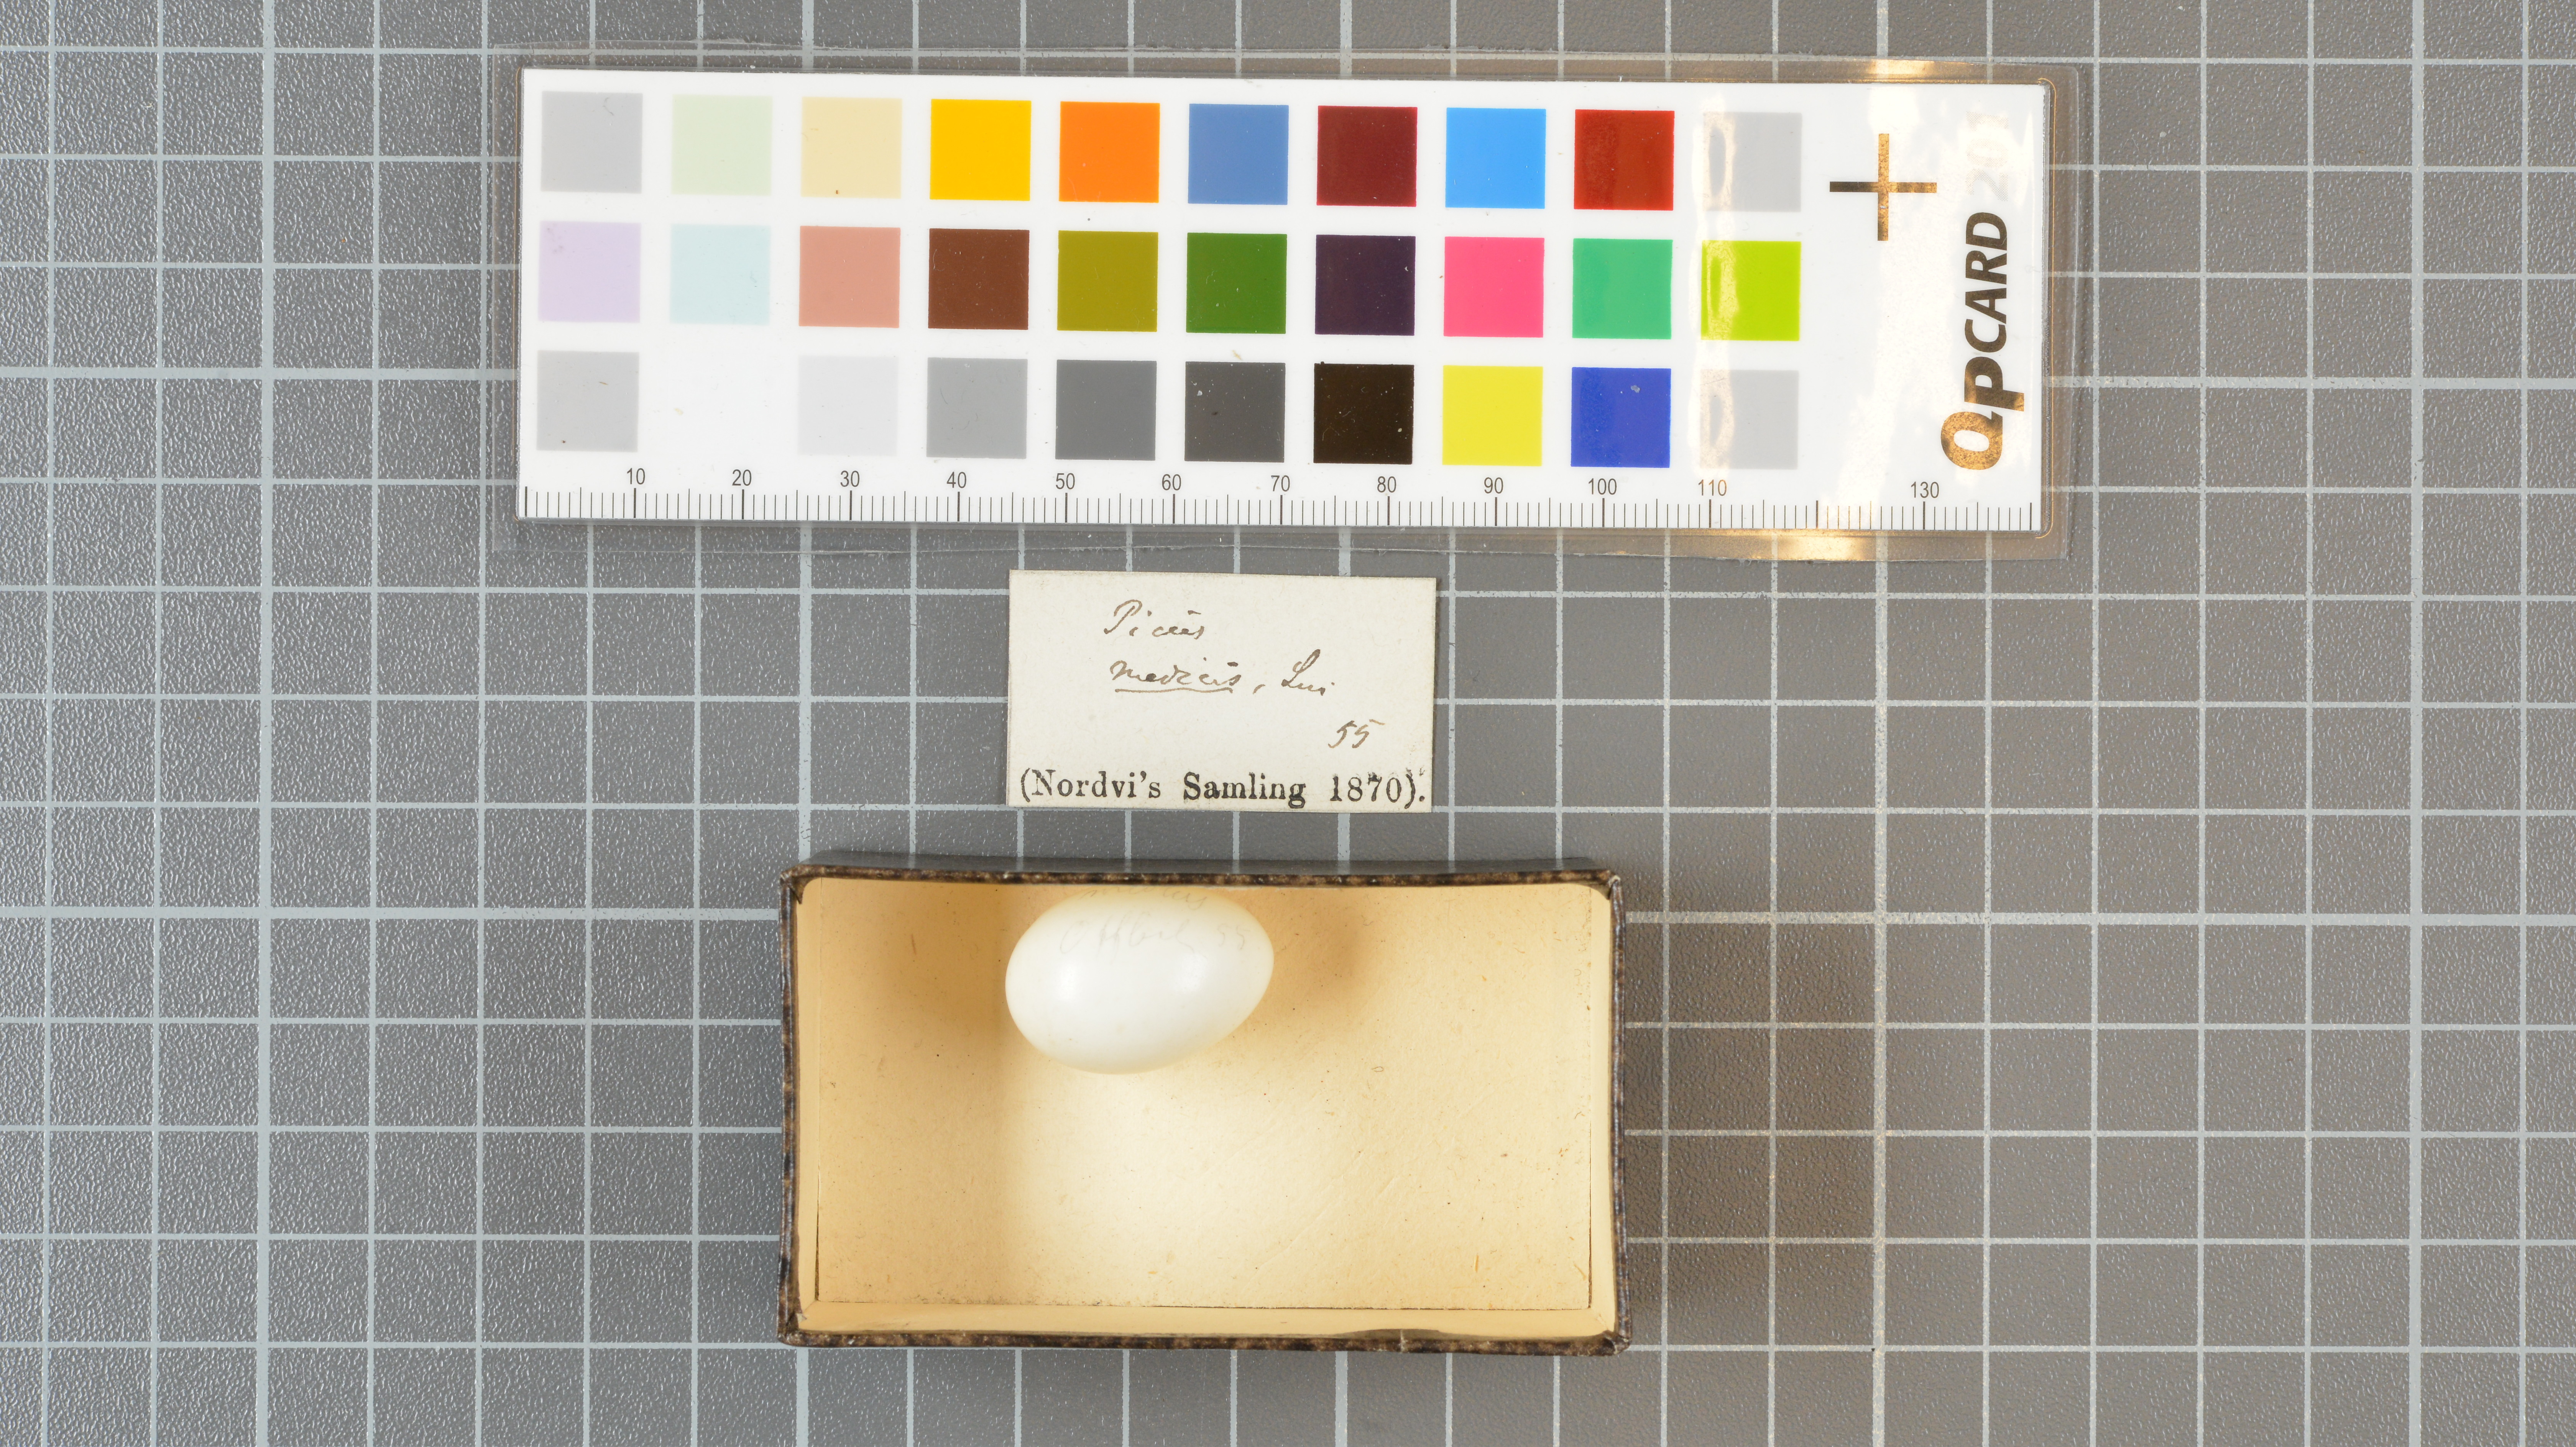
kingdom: Animalia
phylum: Chordata
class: Aves
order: Piciformes
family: Picidae
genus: Dendrocoptes
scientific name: Dendrocoptes medius
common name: Middle spotted woodpecker
